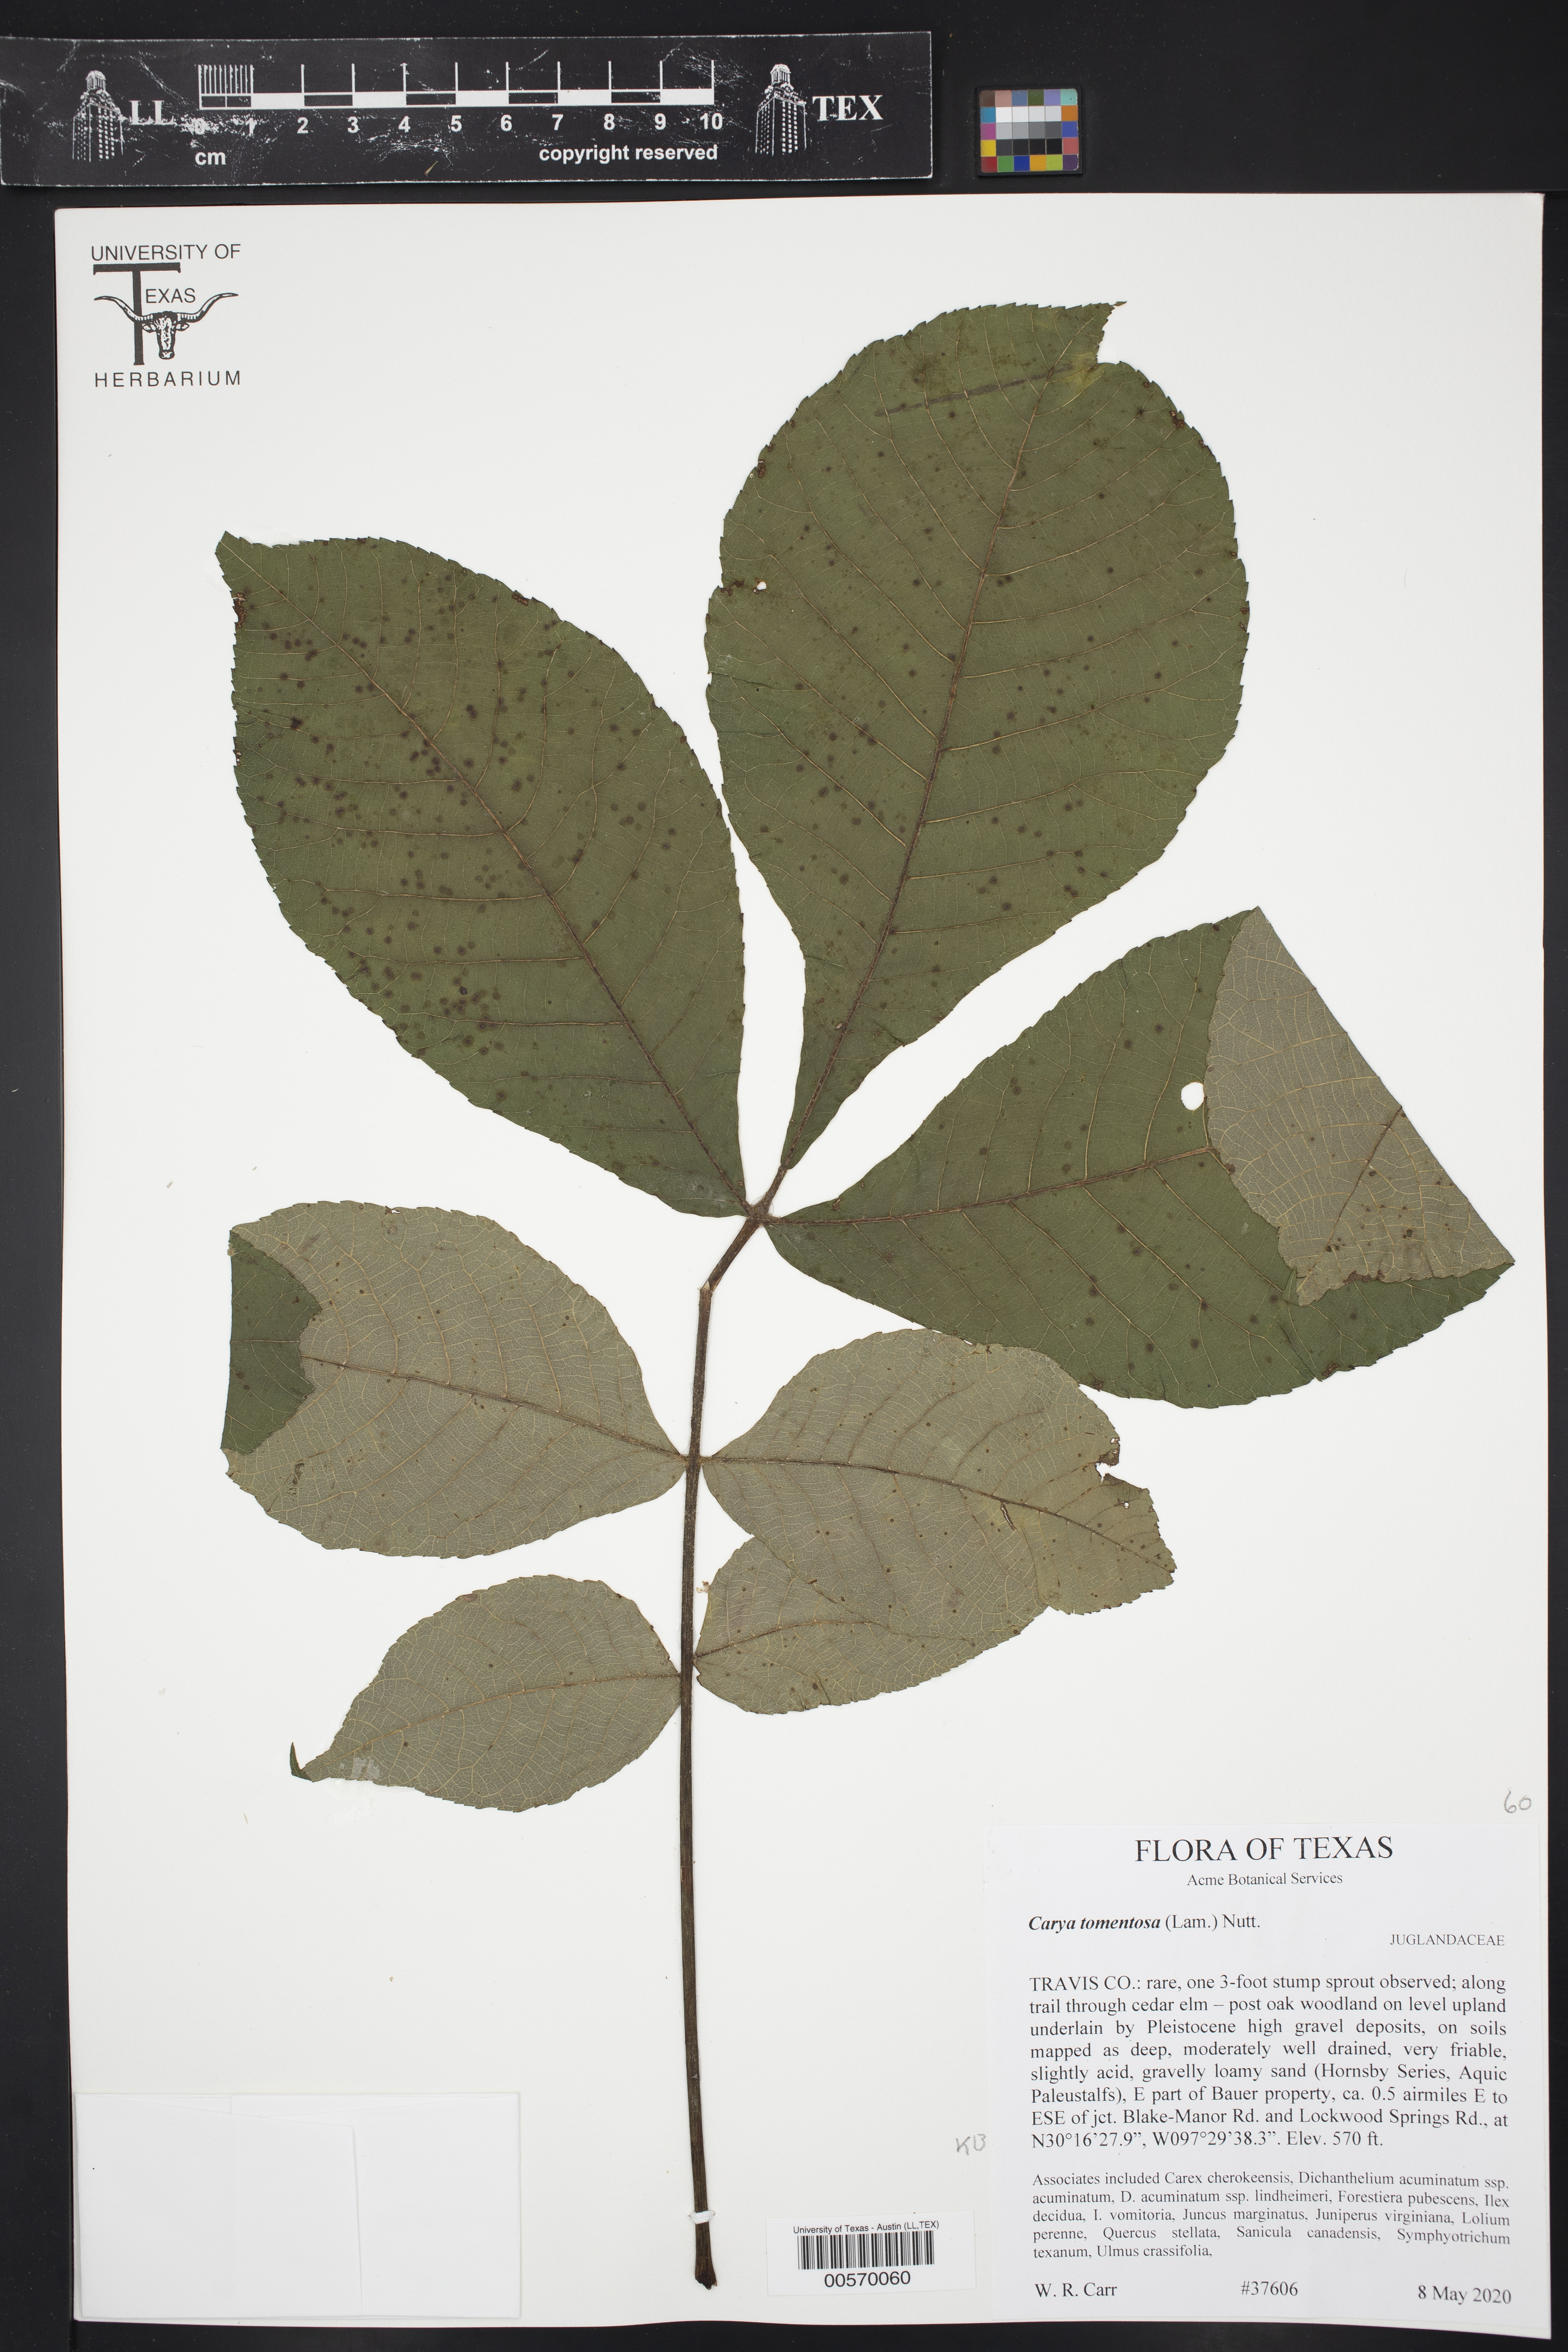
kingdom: Plantae
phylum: Tracheophyta
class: Magnoliopsida
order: Fagales
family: Juglandaceae
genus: Carya
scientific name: Carya alba
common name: Mockernut hickory
